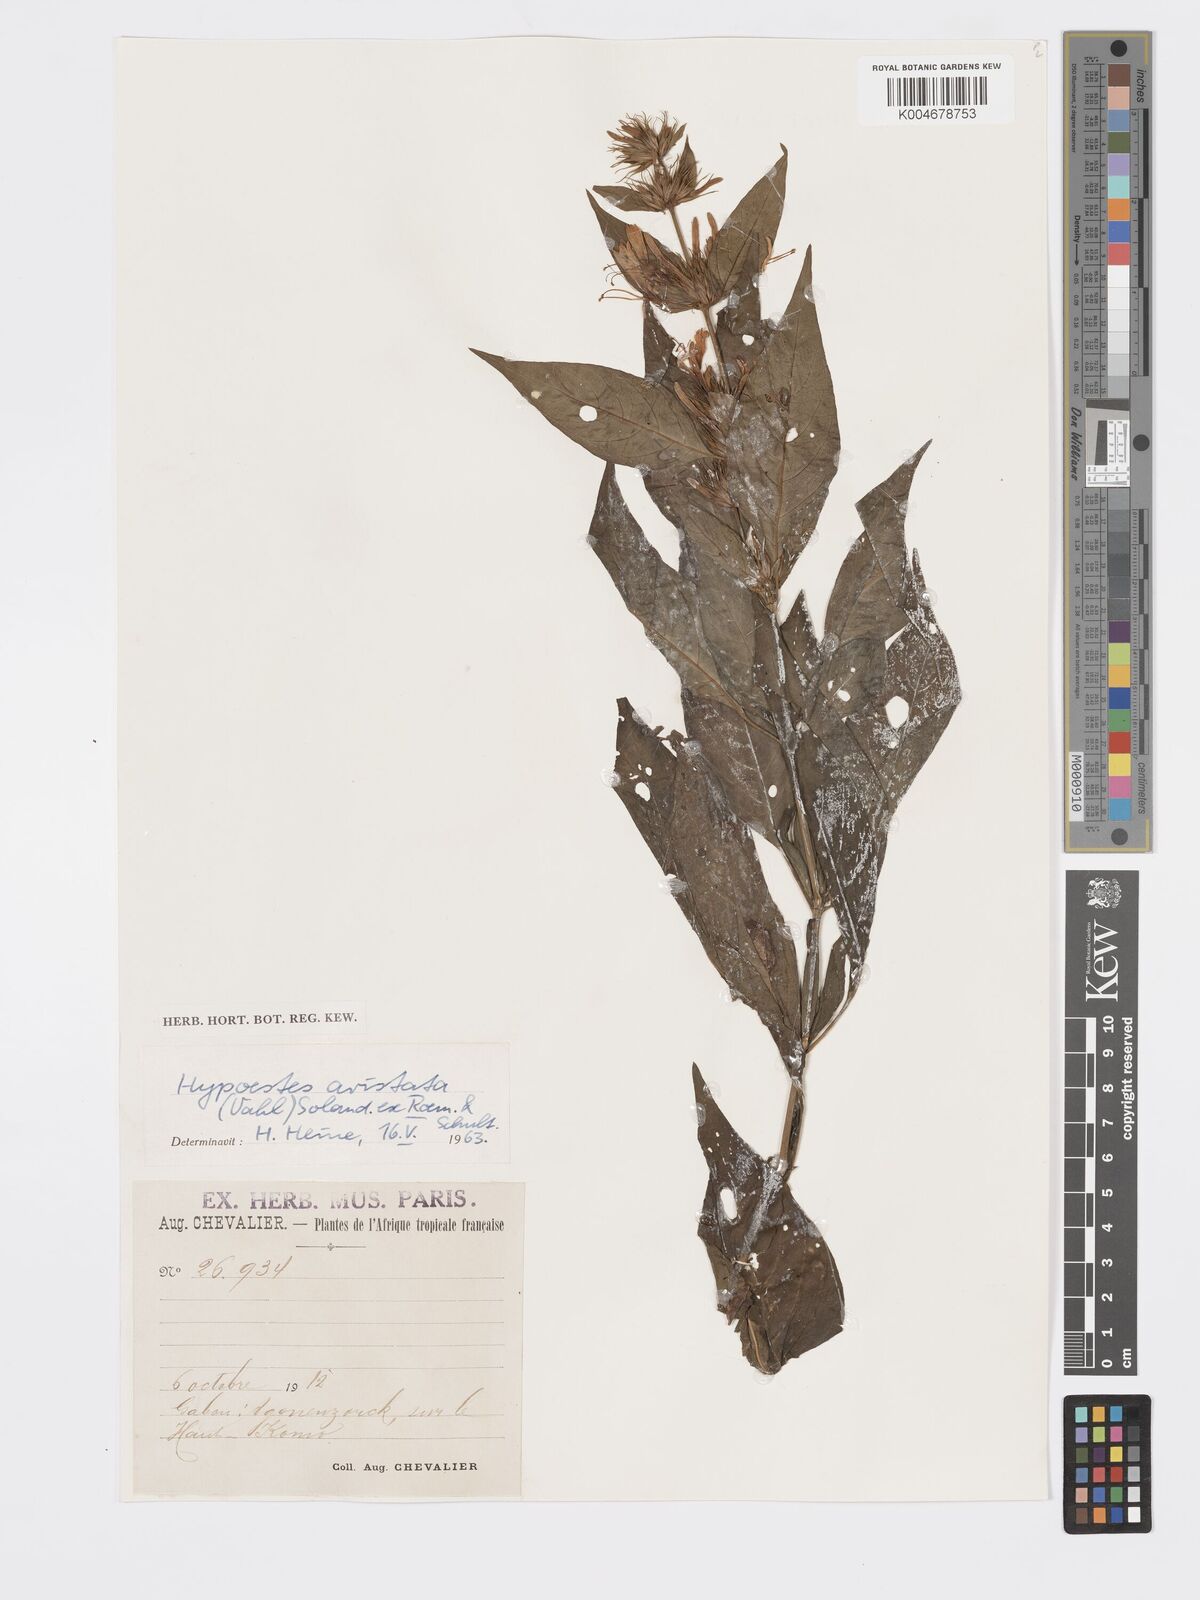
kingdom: Plantae
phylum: Tracheophyta
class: Magnoliopsida
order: Lamiales
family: Acanthaceae
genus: Hypoestes
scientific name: Hypoestes aristata
